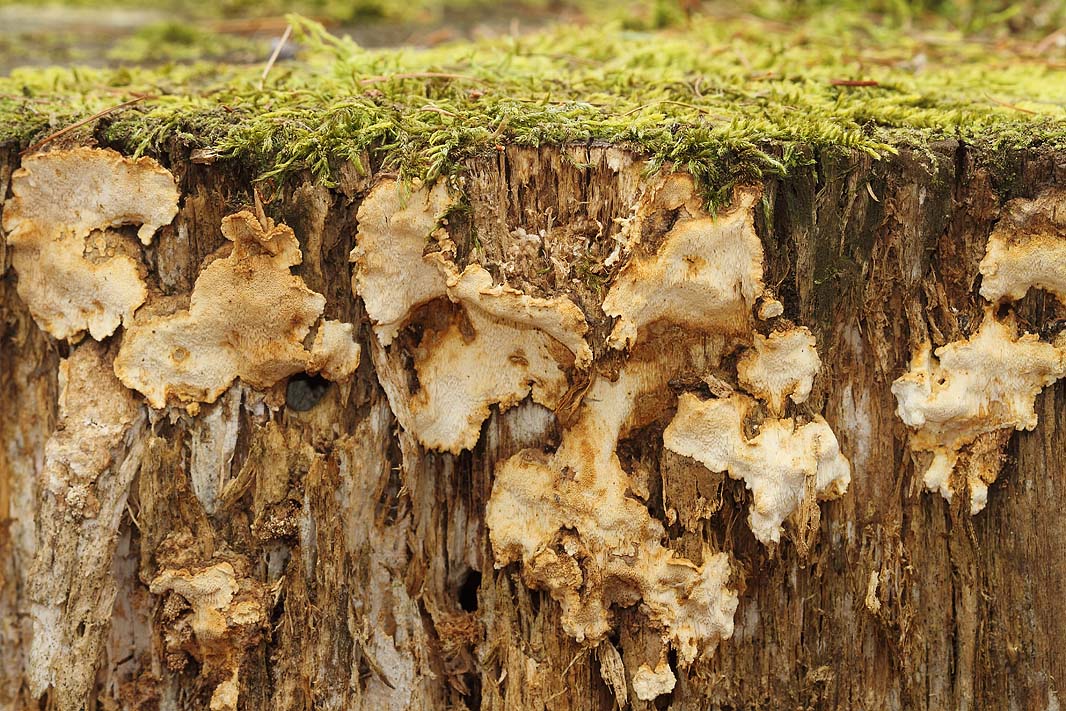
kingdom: Fungi
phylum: Basidiomycota
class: Agaricomycetes
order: Russulales
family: Bondarzewiaceae
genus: Heterobasidion
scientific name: Heterobasidion annosum
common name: almindelig rodfordærver
